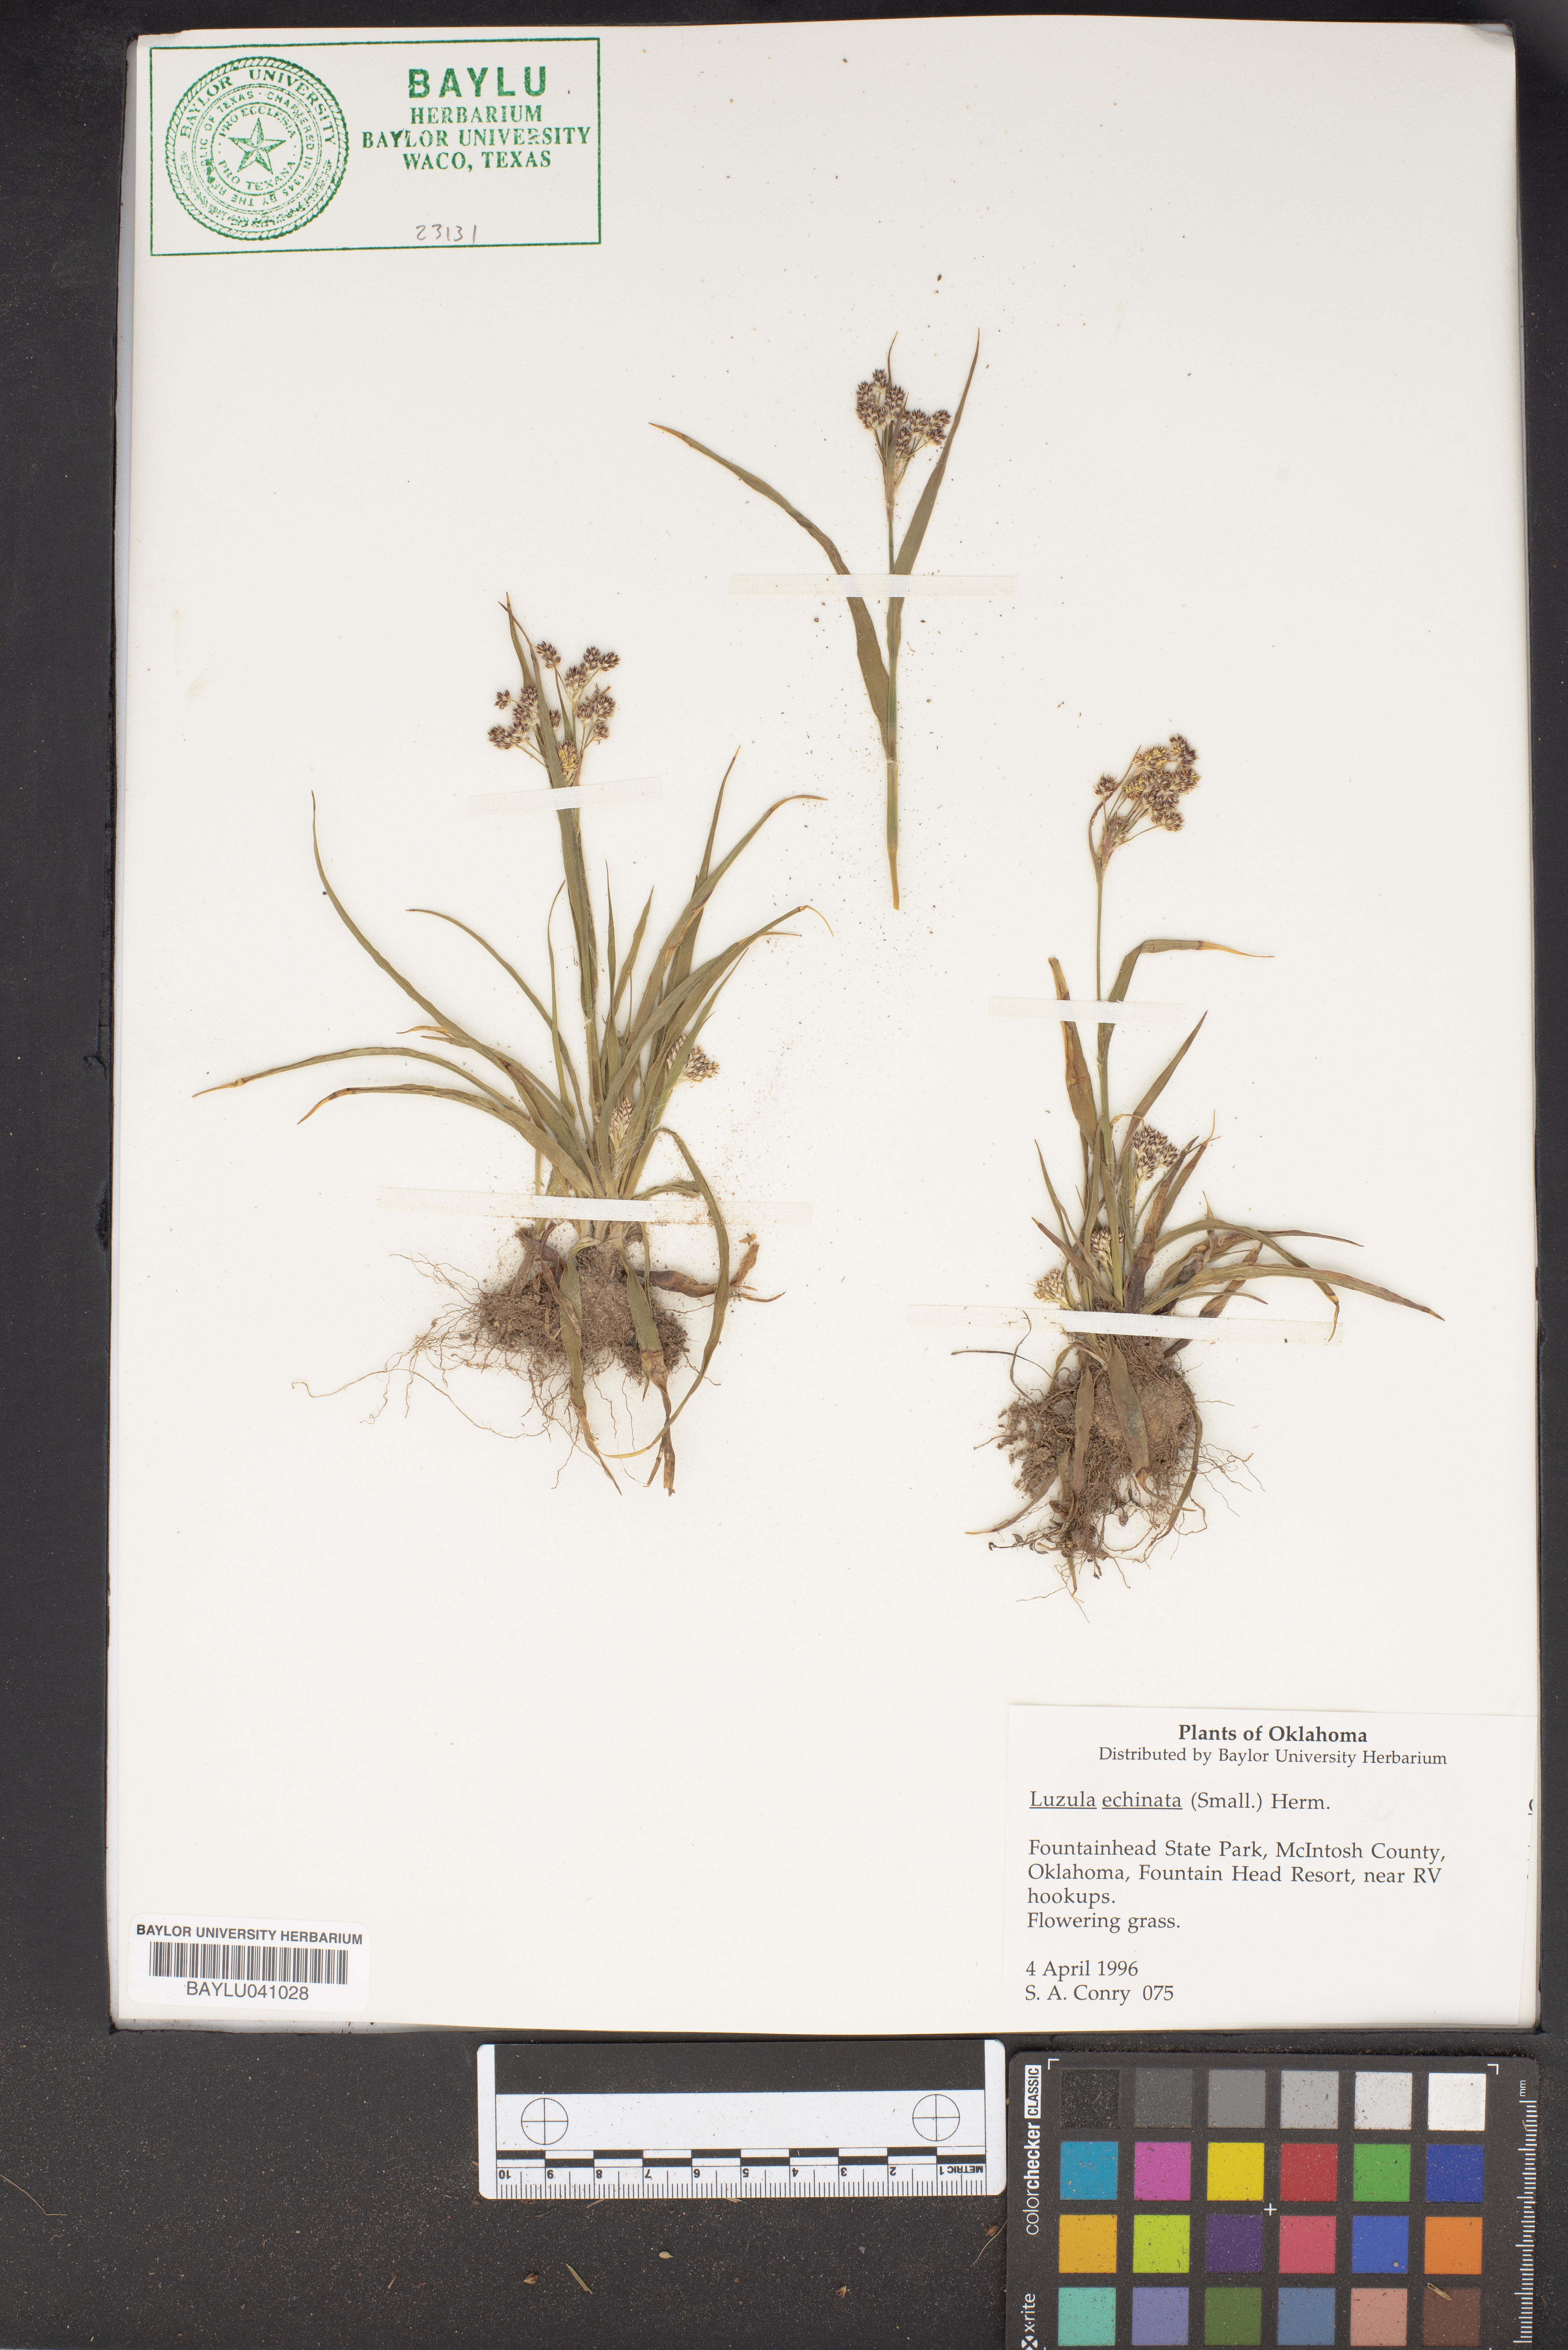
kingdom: Plantae
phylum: Tracheophyta
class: Liliopsida
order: Poales
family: Juncaceae
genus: Luzula
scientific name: Luzula echinata
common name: Hedgehog woodrush
